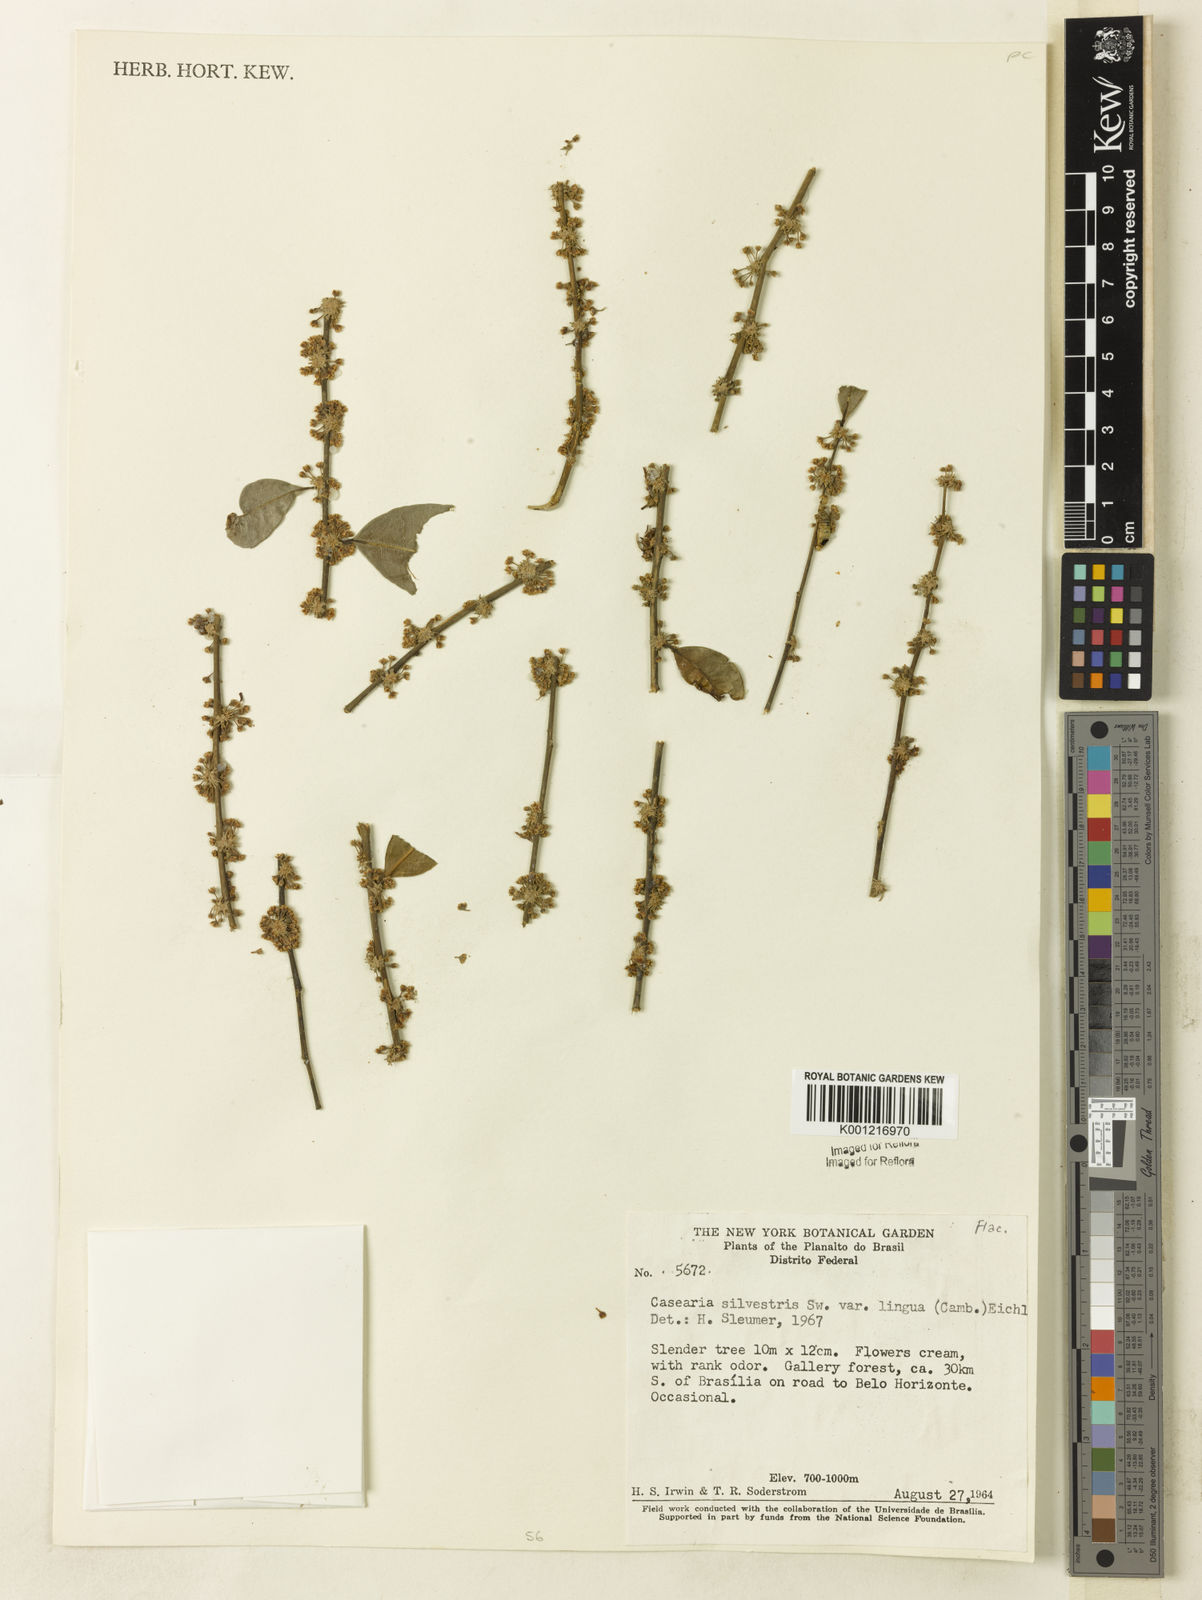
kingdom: Plantae
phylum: Tracheophyta
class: Magnoliopsida
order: Malpighiales
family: Salicaceae
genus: Casearia
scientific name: Casearia sylvestris
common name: Wild sage
